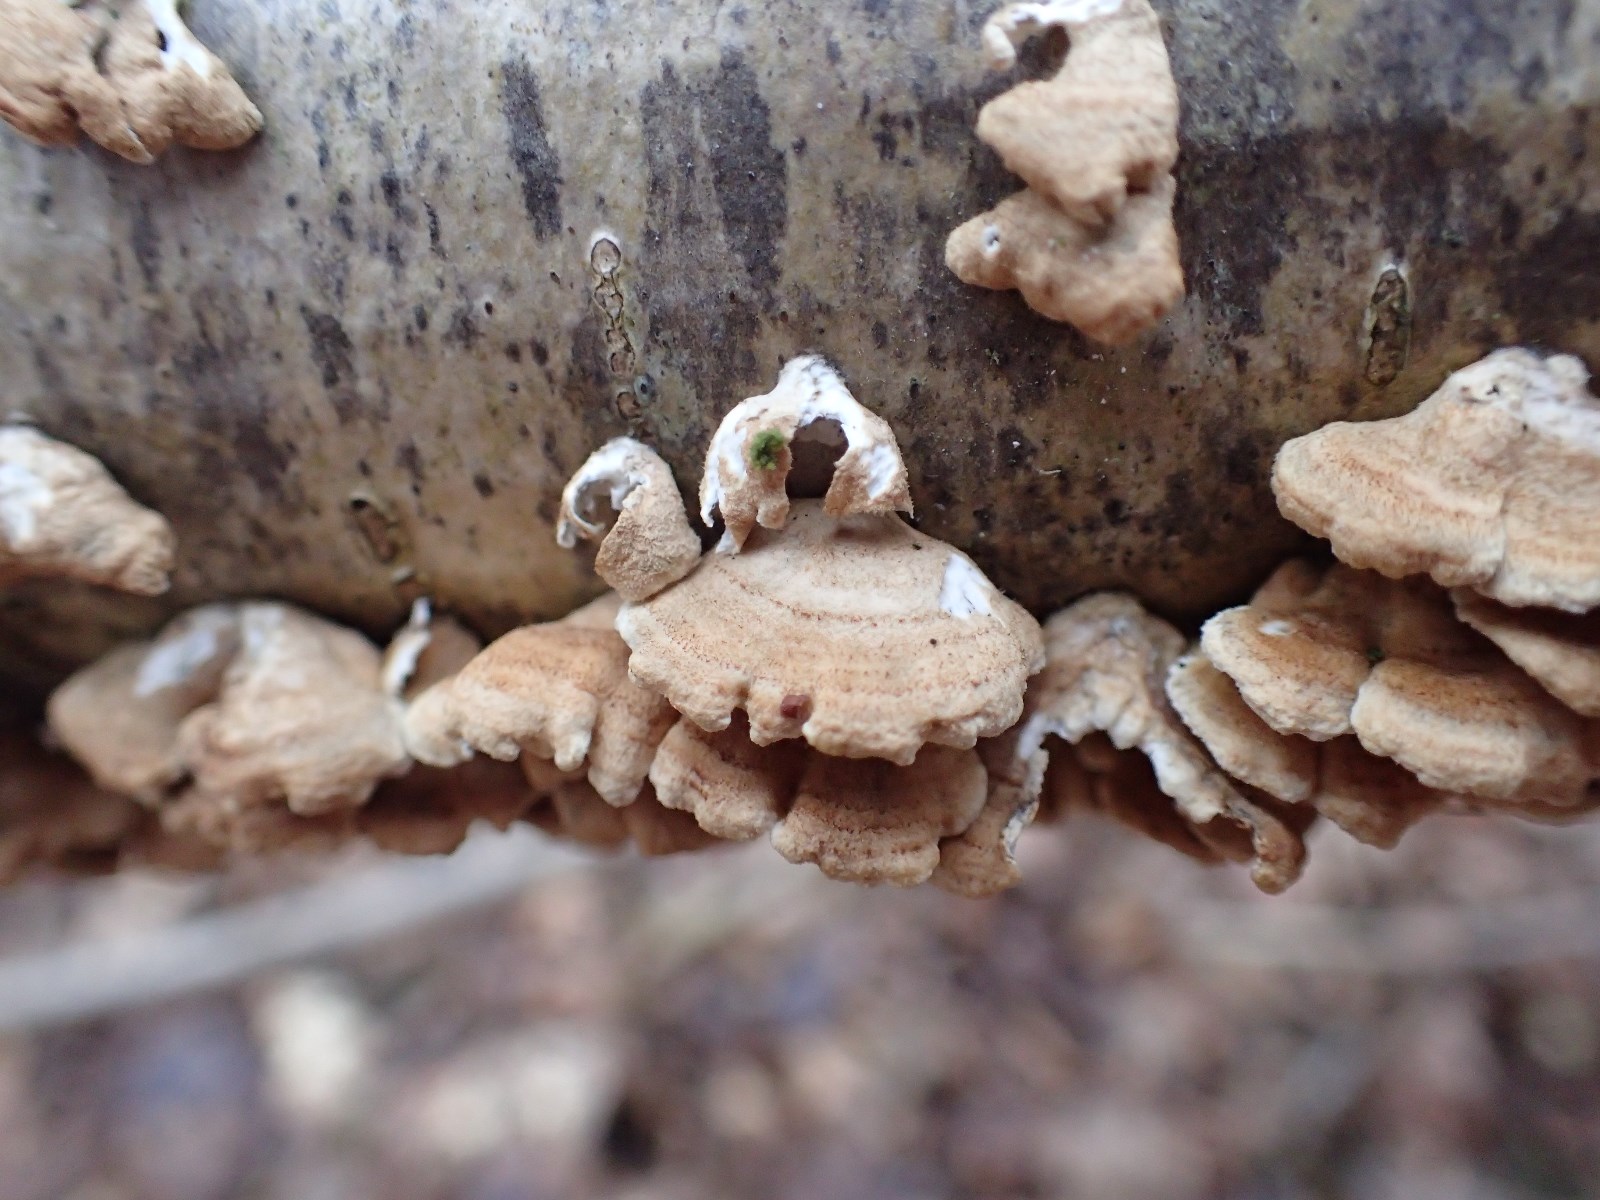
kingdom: Fungi
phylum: Basidiomycota
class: Agaricomycetes
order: Amylocorticiales
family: Amylocorticiaceae
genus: Plicaturopsis
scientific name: Plicaturopsis crispa
